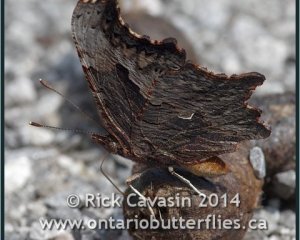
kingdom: Animalia
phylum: Arthropoda
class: Insecta
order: Lepidoptera
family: Nymphalidae
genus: Polygonia
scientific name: Polygonia progne
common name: Gray Comma
